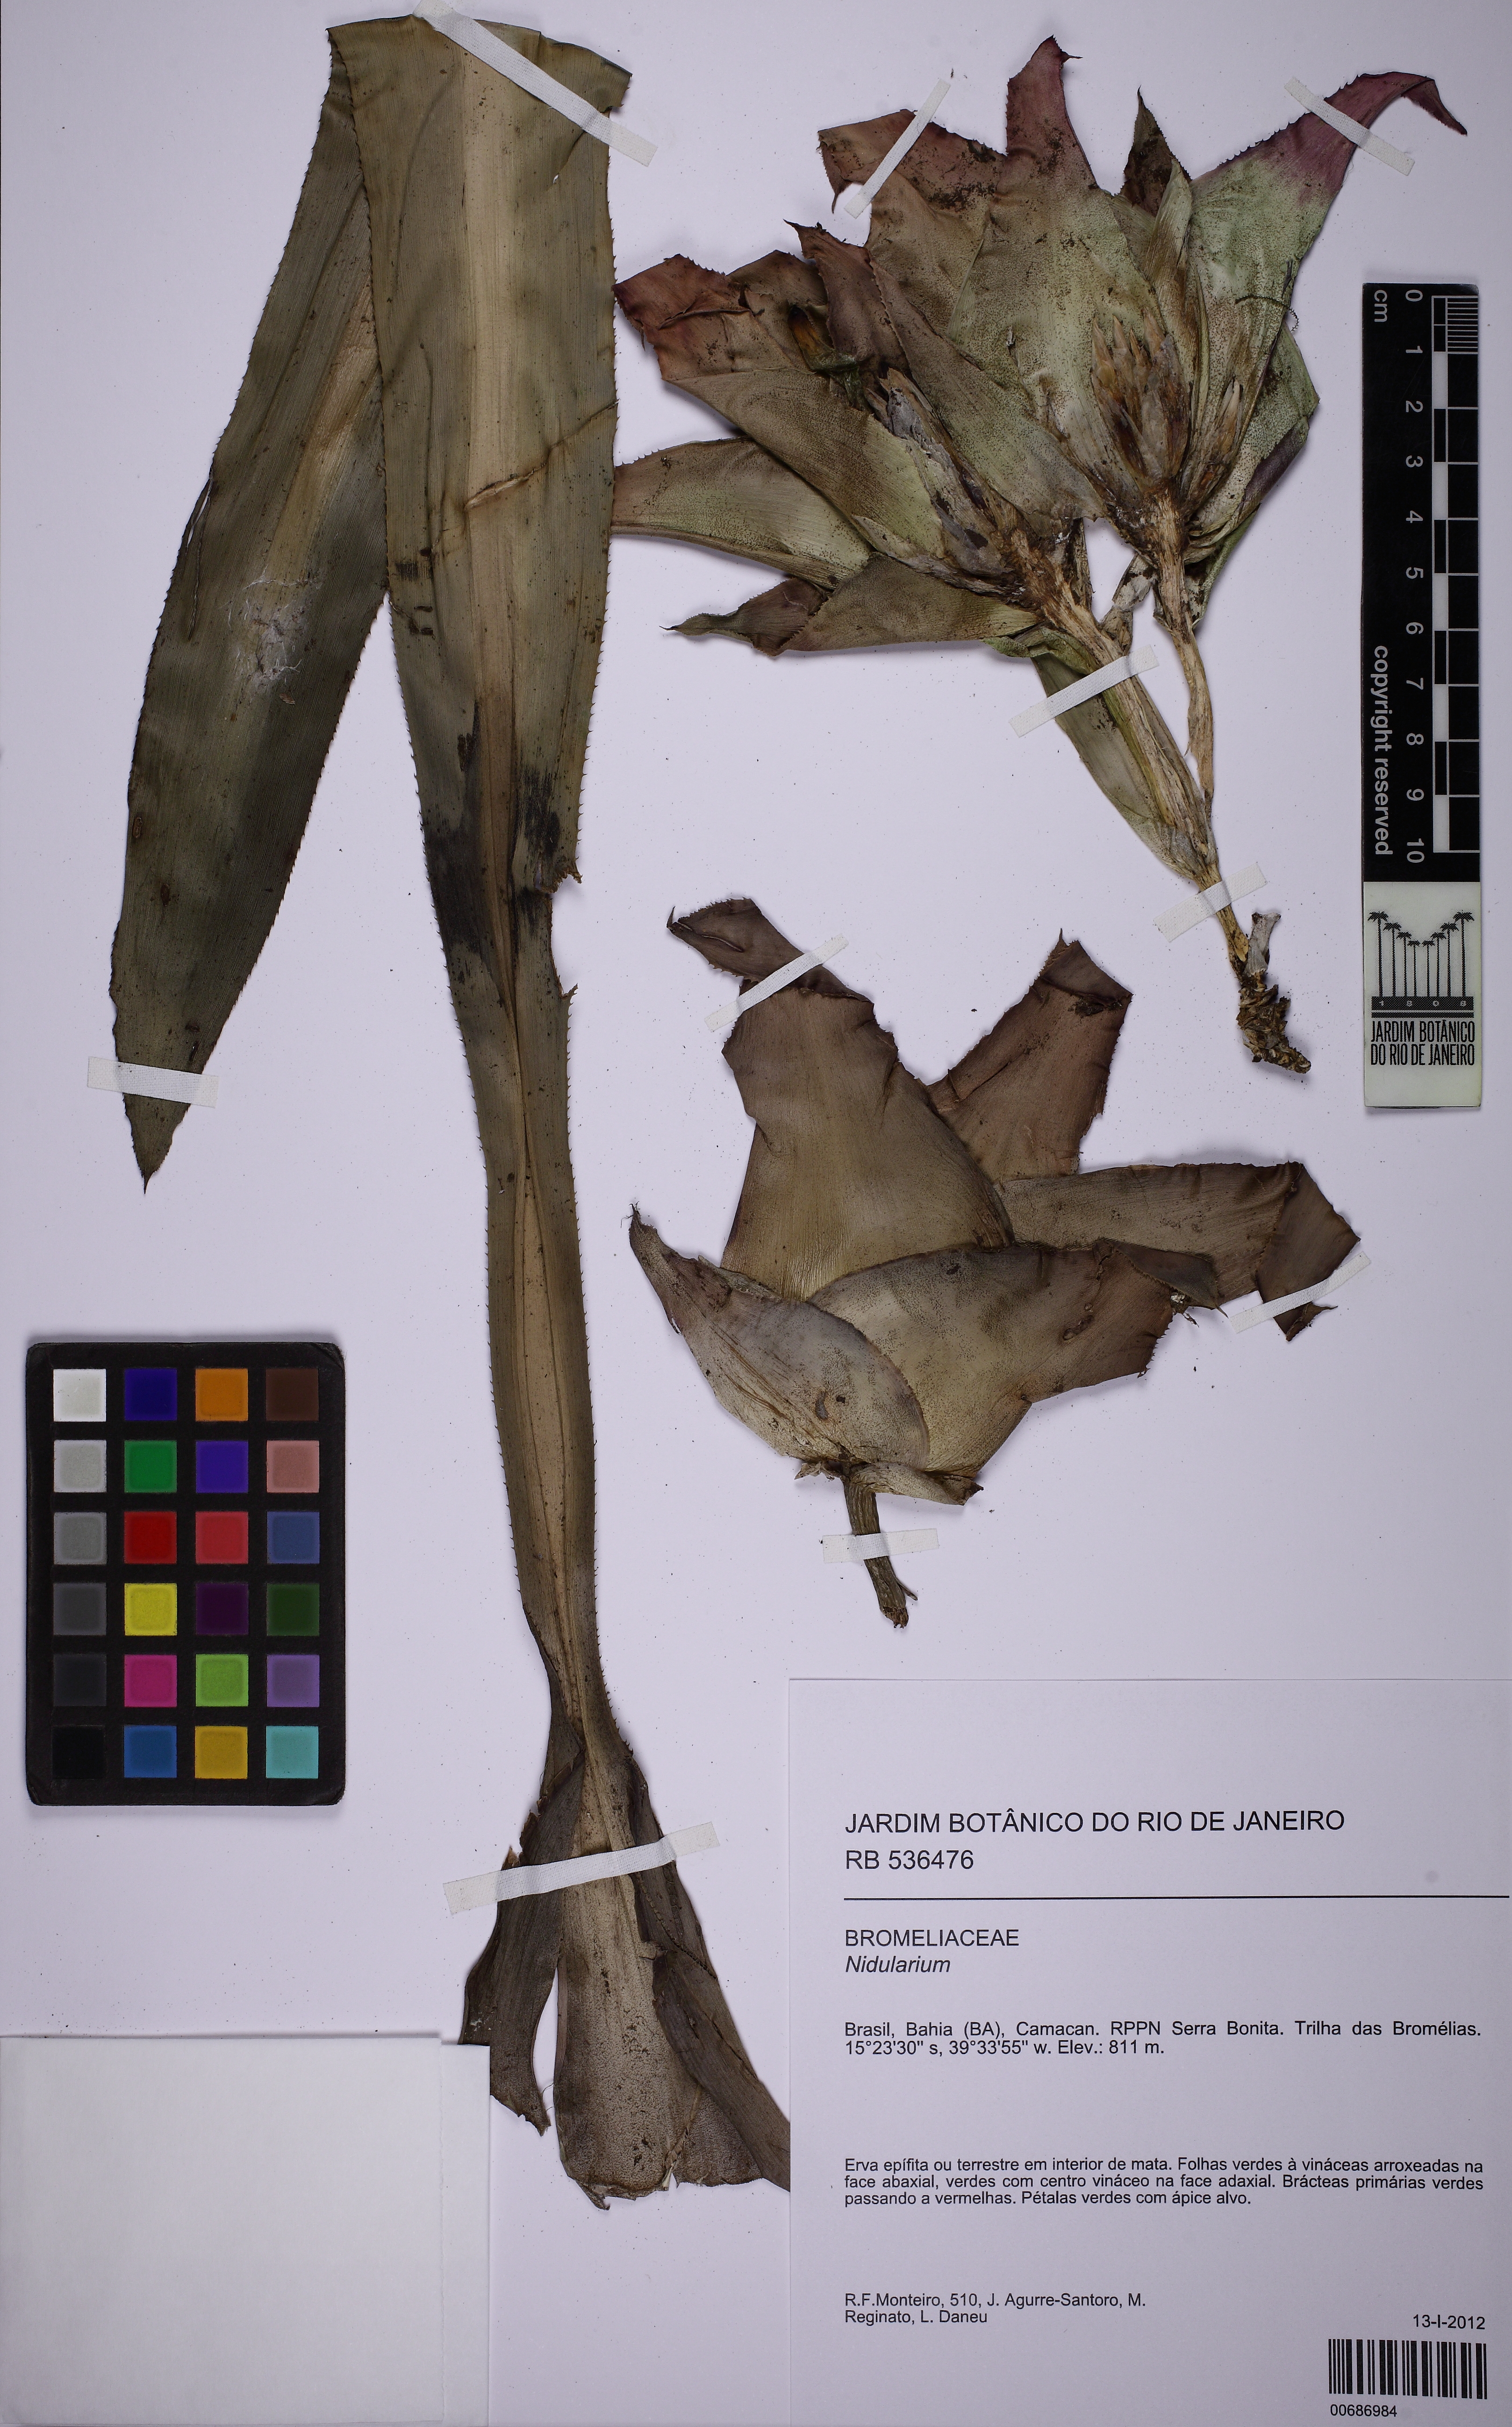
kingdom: Plantae
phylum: Tracheophyta
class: Liliopsida
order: Poales
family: Bromeliaceae
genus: Nidularium
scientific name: Nidularium
